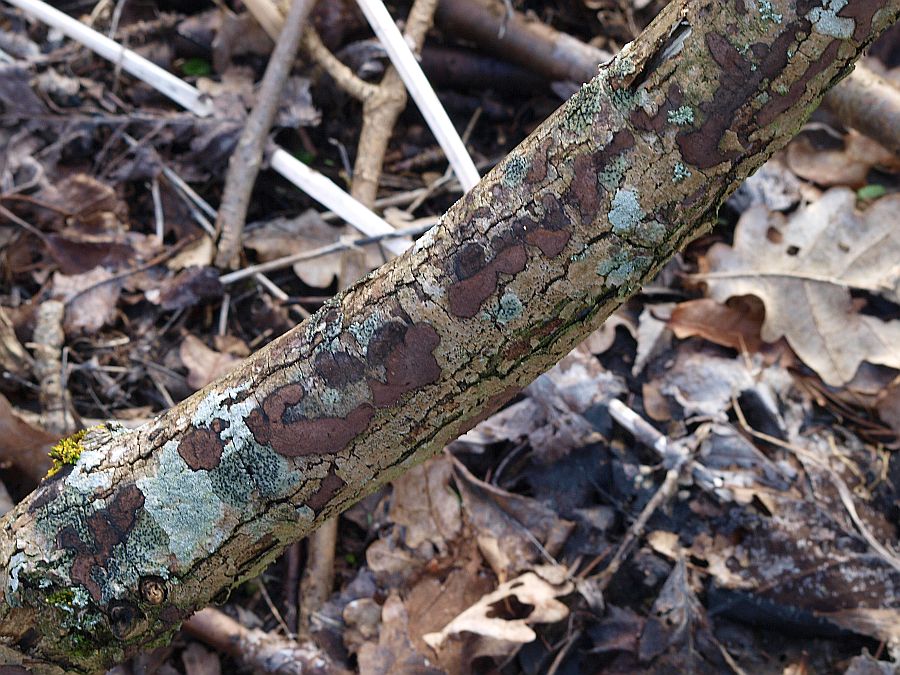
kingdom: Fungi
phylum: Ascomycota
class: Sordariomycetes
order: Xylariales
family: Hypoxylaceae
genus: Hypoxylon
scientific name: Hypoxylon petriniae
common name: nedsænket kulbær
